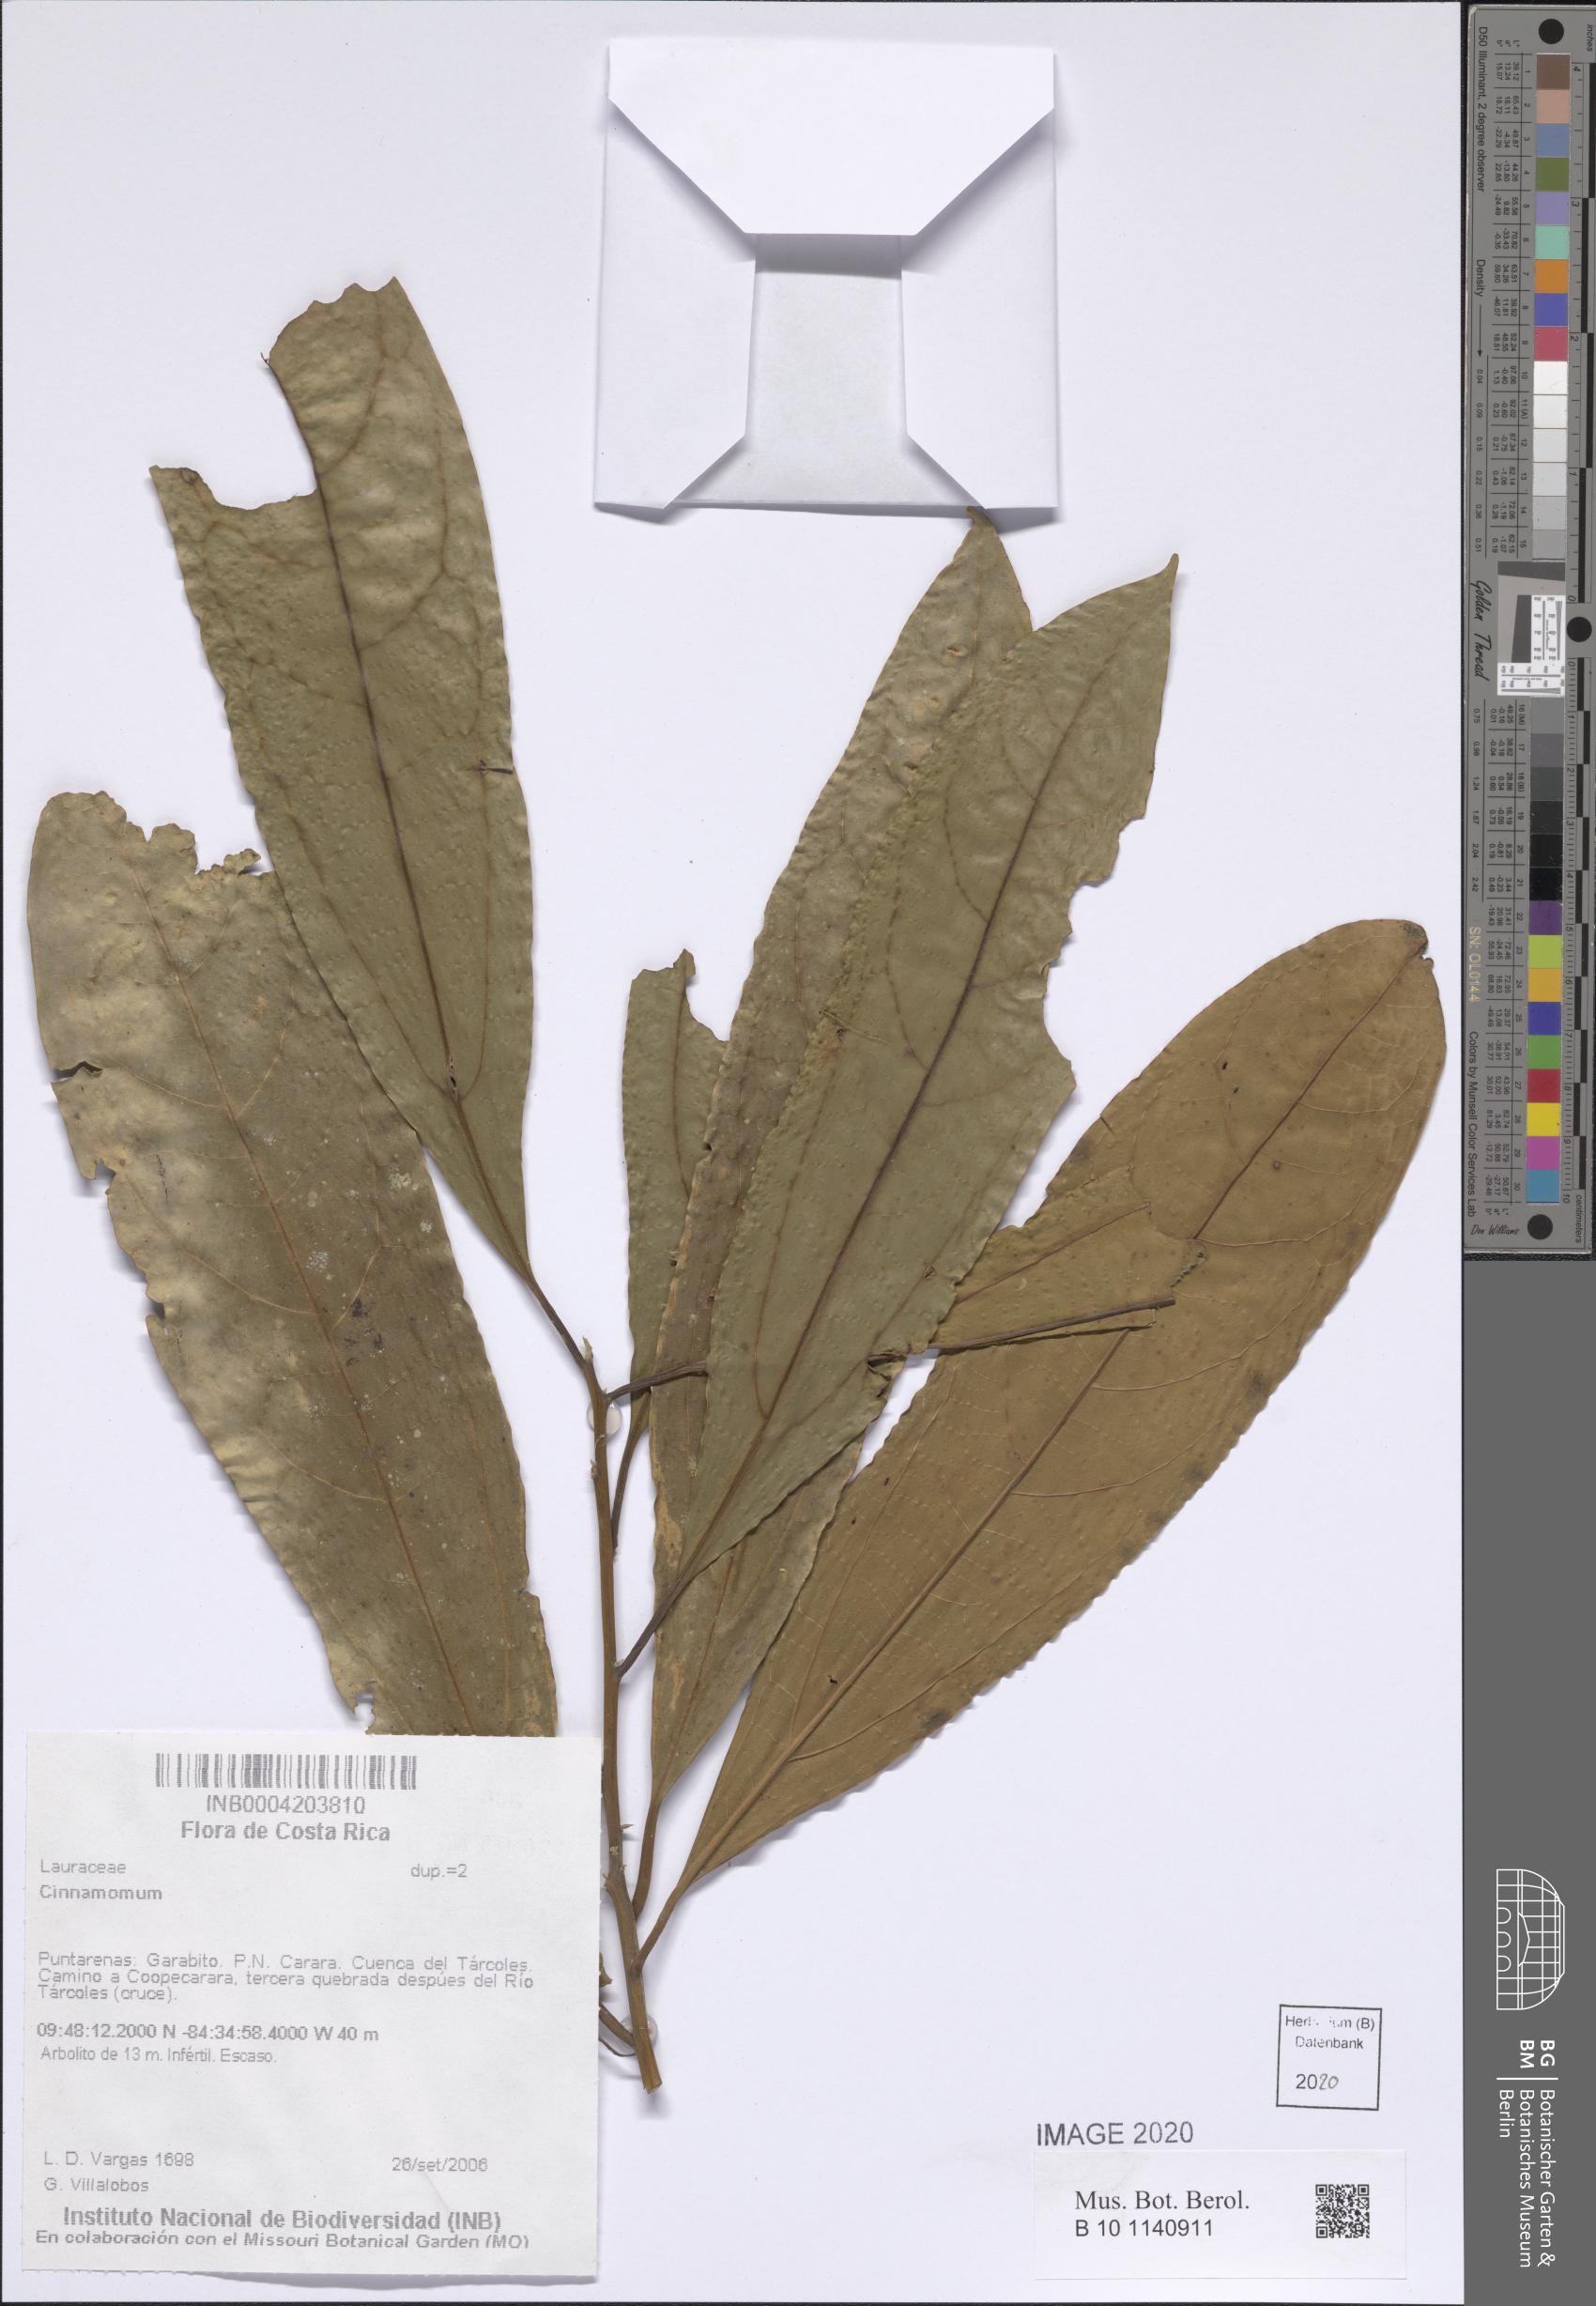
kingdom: Plantae
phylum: Tracheophyta
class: Magnoliopsida
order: Laurales
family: Lauraceae
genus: Cinnamomum
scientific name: Cinnamomum
